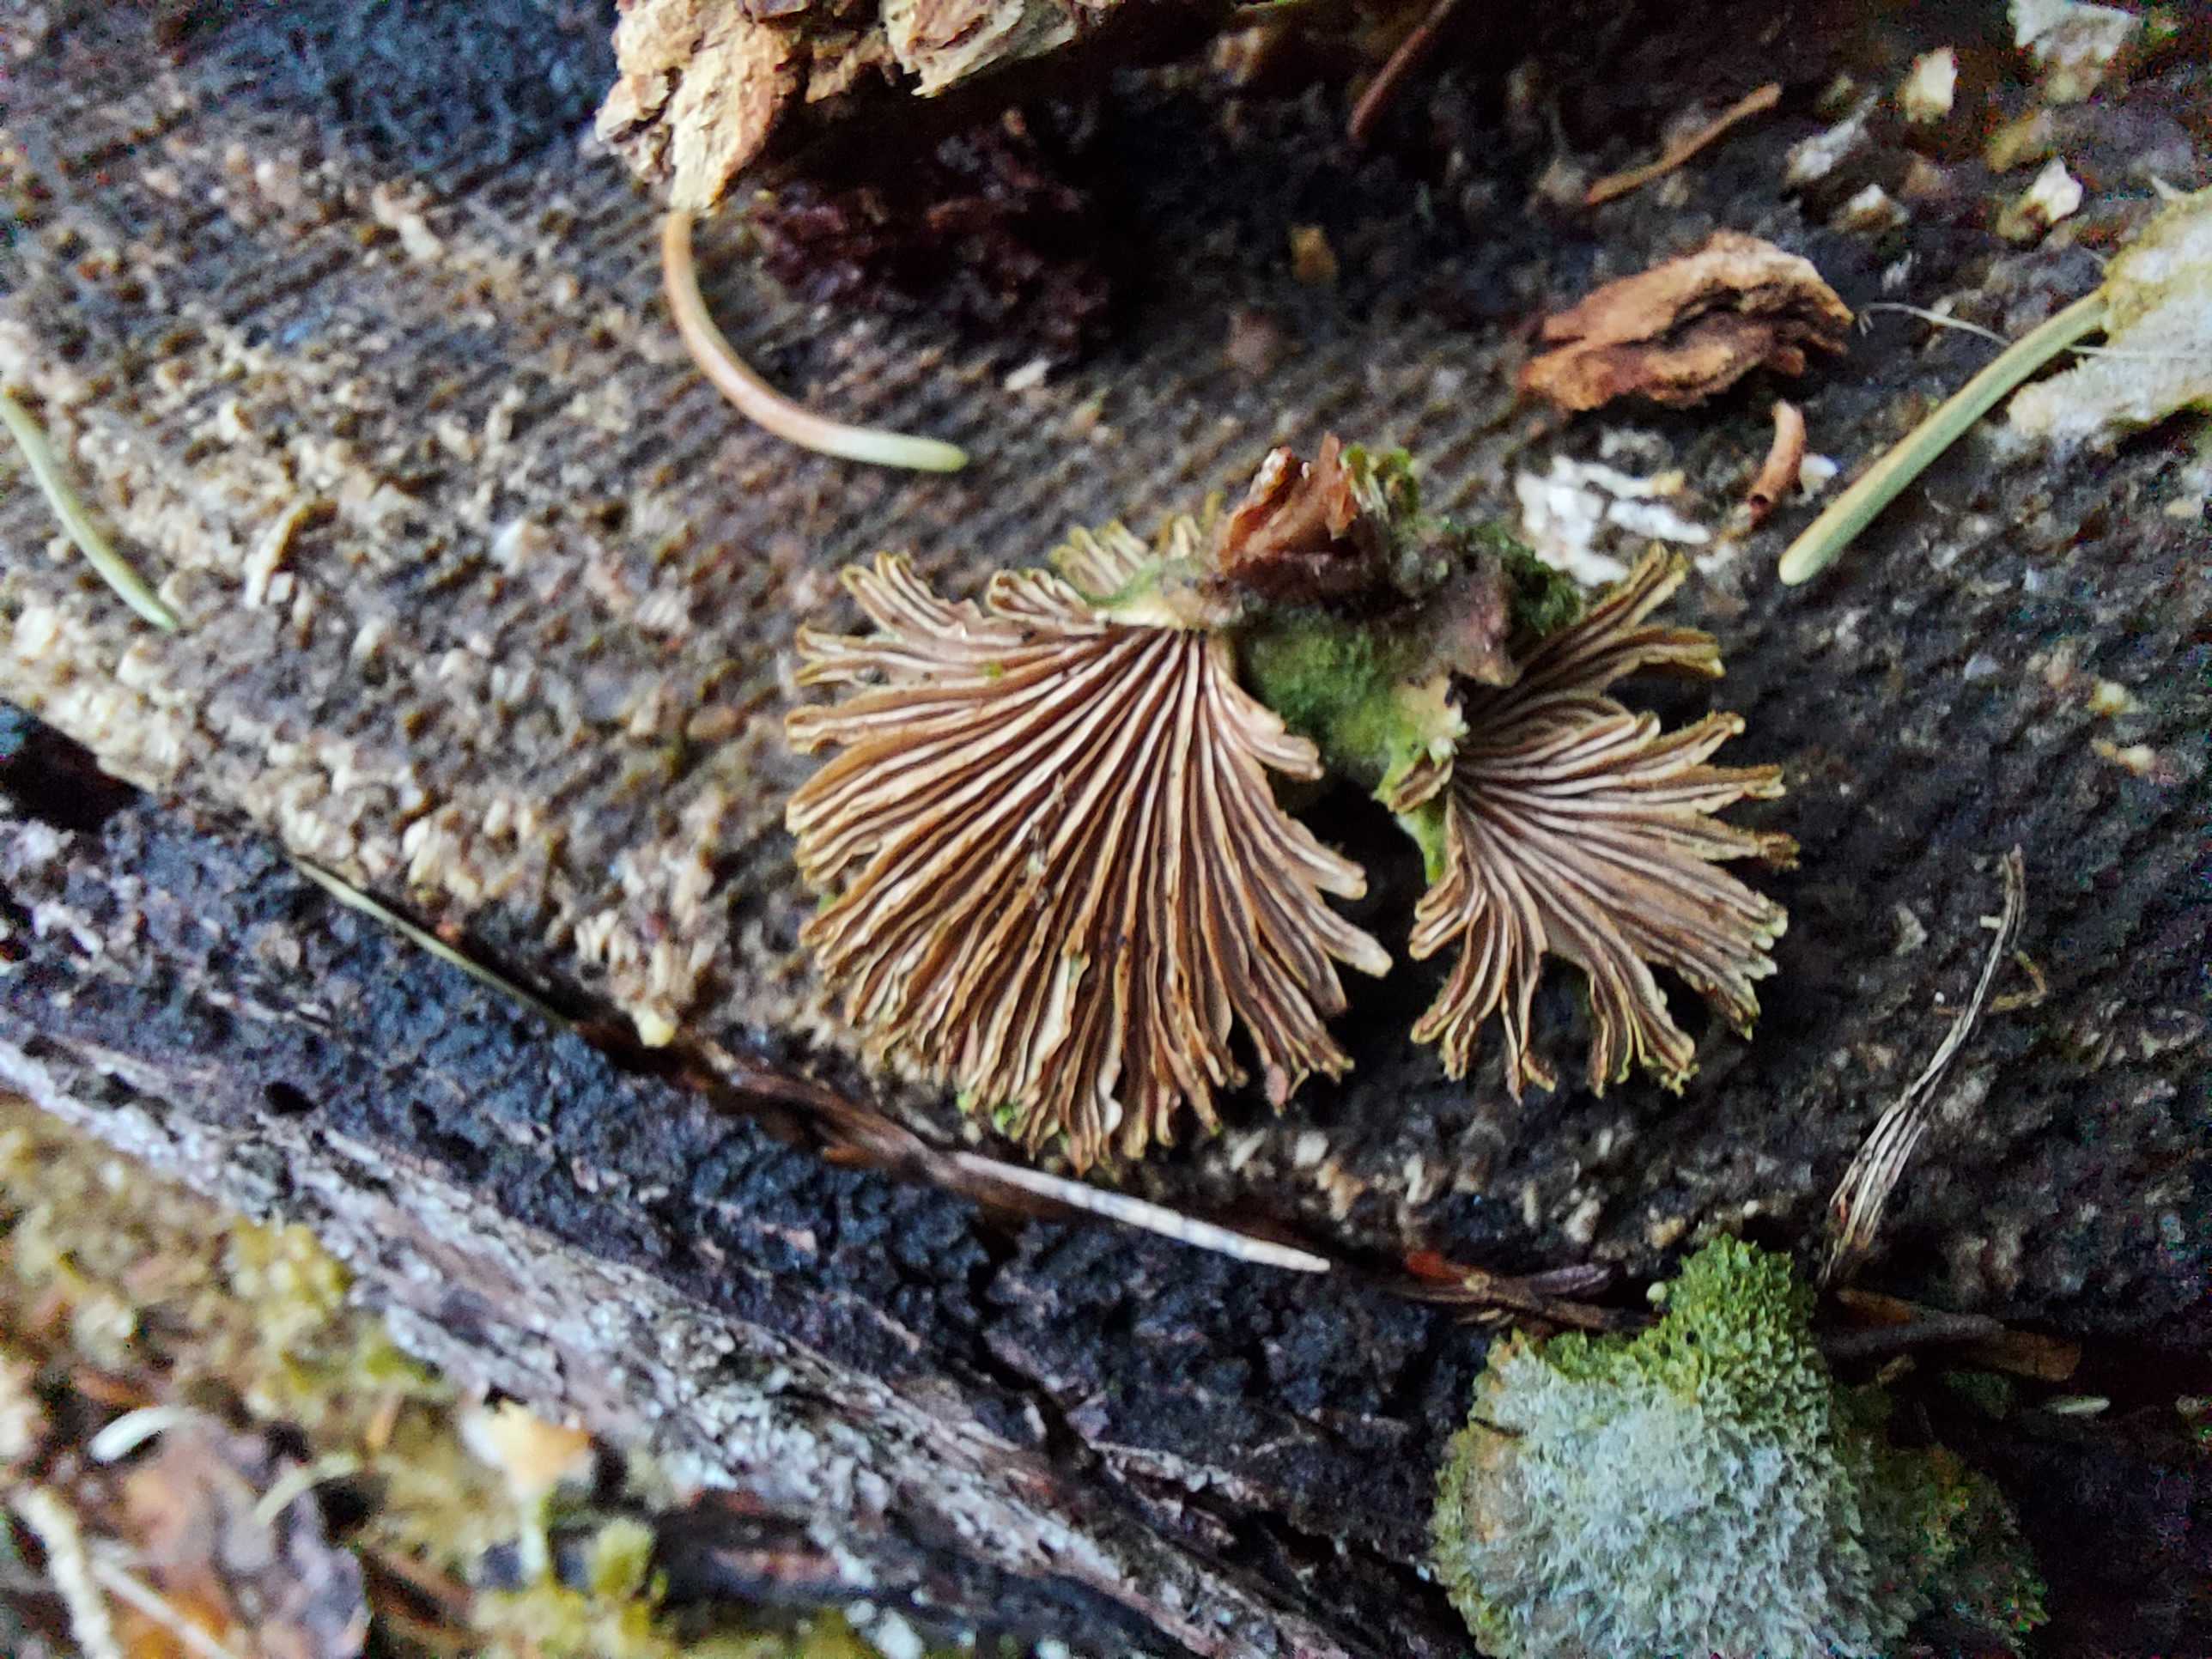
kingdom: Fungi
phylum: Basidiomycota
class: Agaricomycetes
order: Agaricales
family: Schizophyllaceae
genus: Schizophyllum
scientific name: Schizophyllum commune
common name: kløvblad
